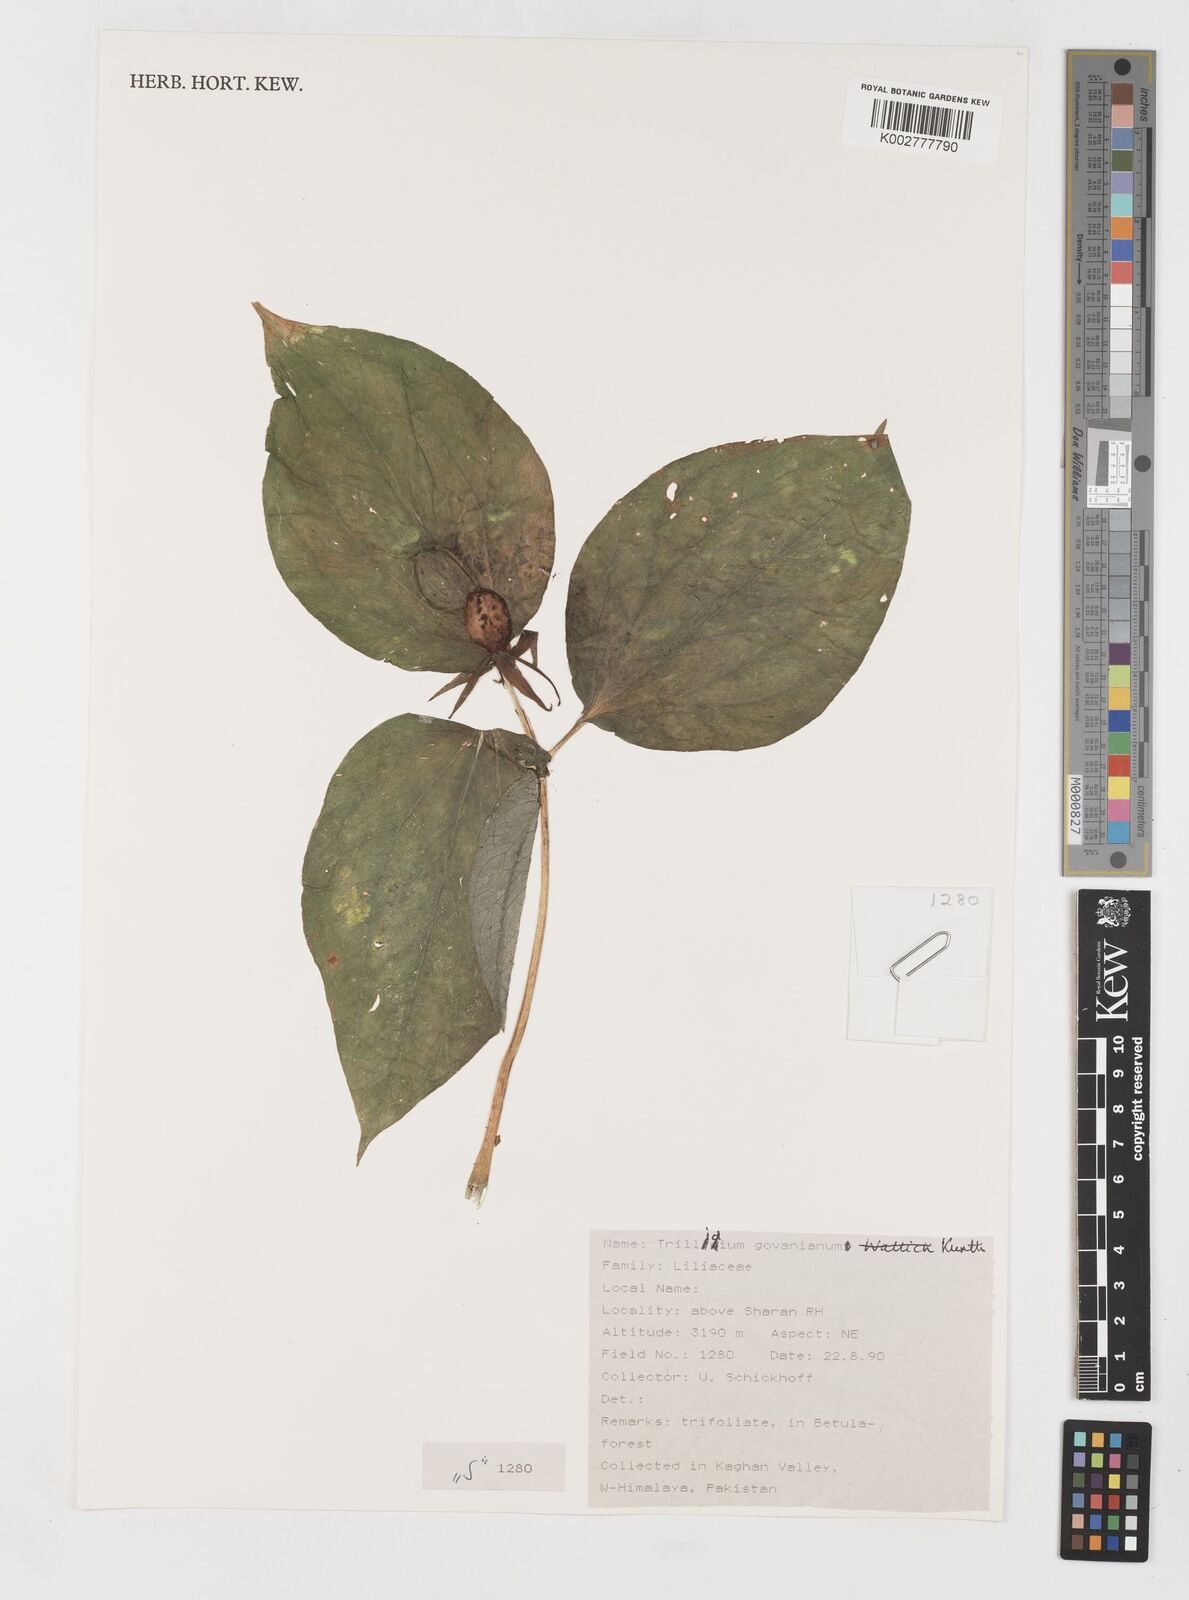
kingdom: Plantae
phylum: Tracheophyta
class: Liliopsida
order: Liliales
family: Melanthiaceae
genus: Trillium
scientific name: Trillium govanianum
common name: Himalayan trillium
